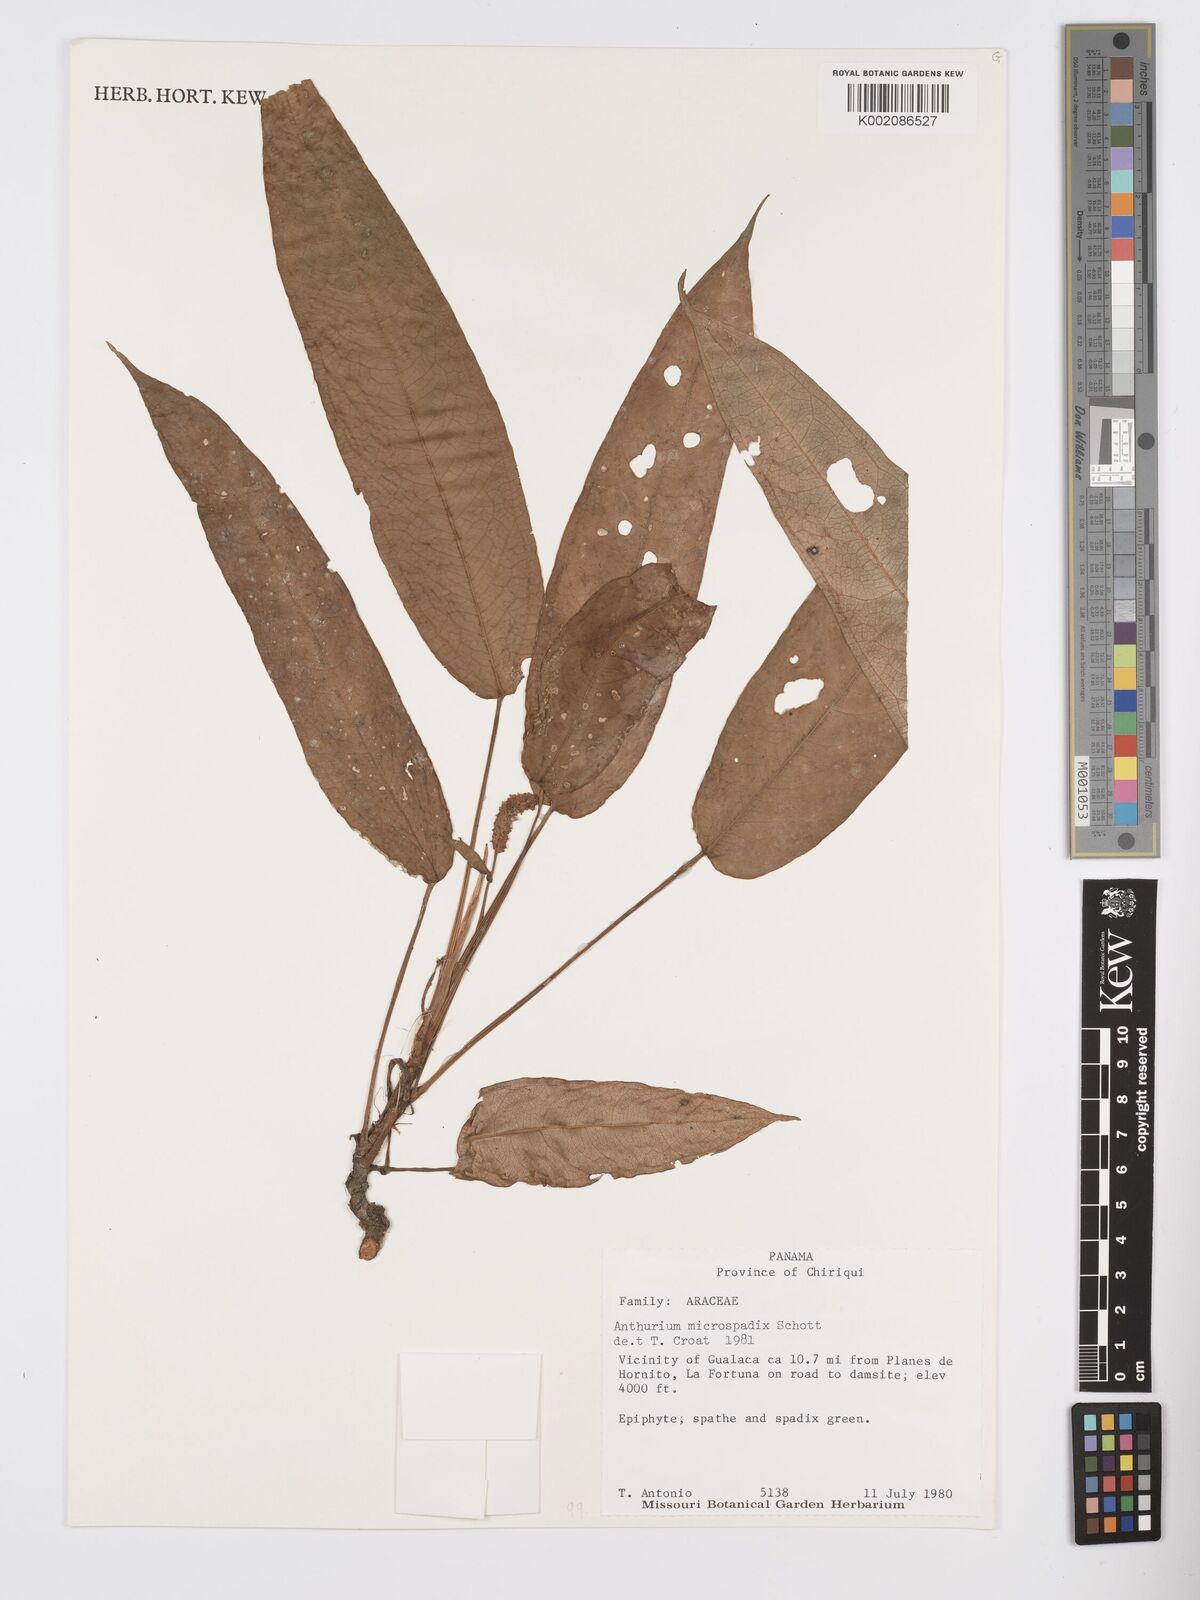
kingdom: Plantae
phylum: Tracheophyta
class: Liliopsida
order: Alismatales
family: Araceae
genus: Anthurium
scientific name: Anthurium microspadix
